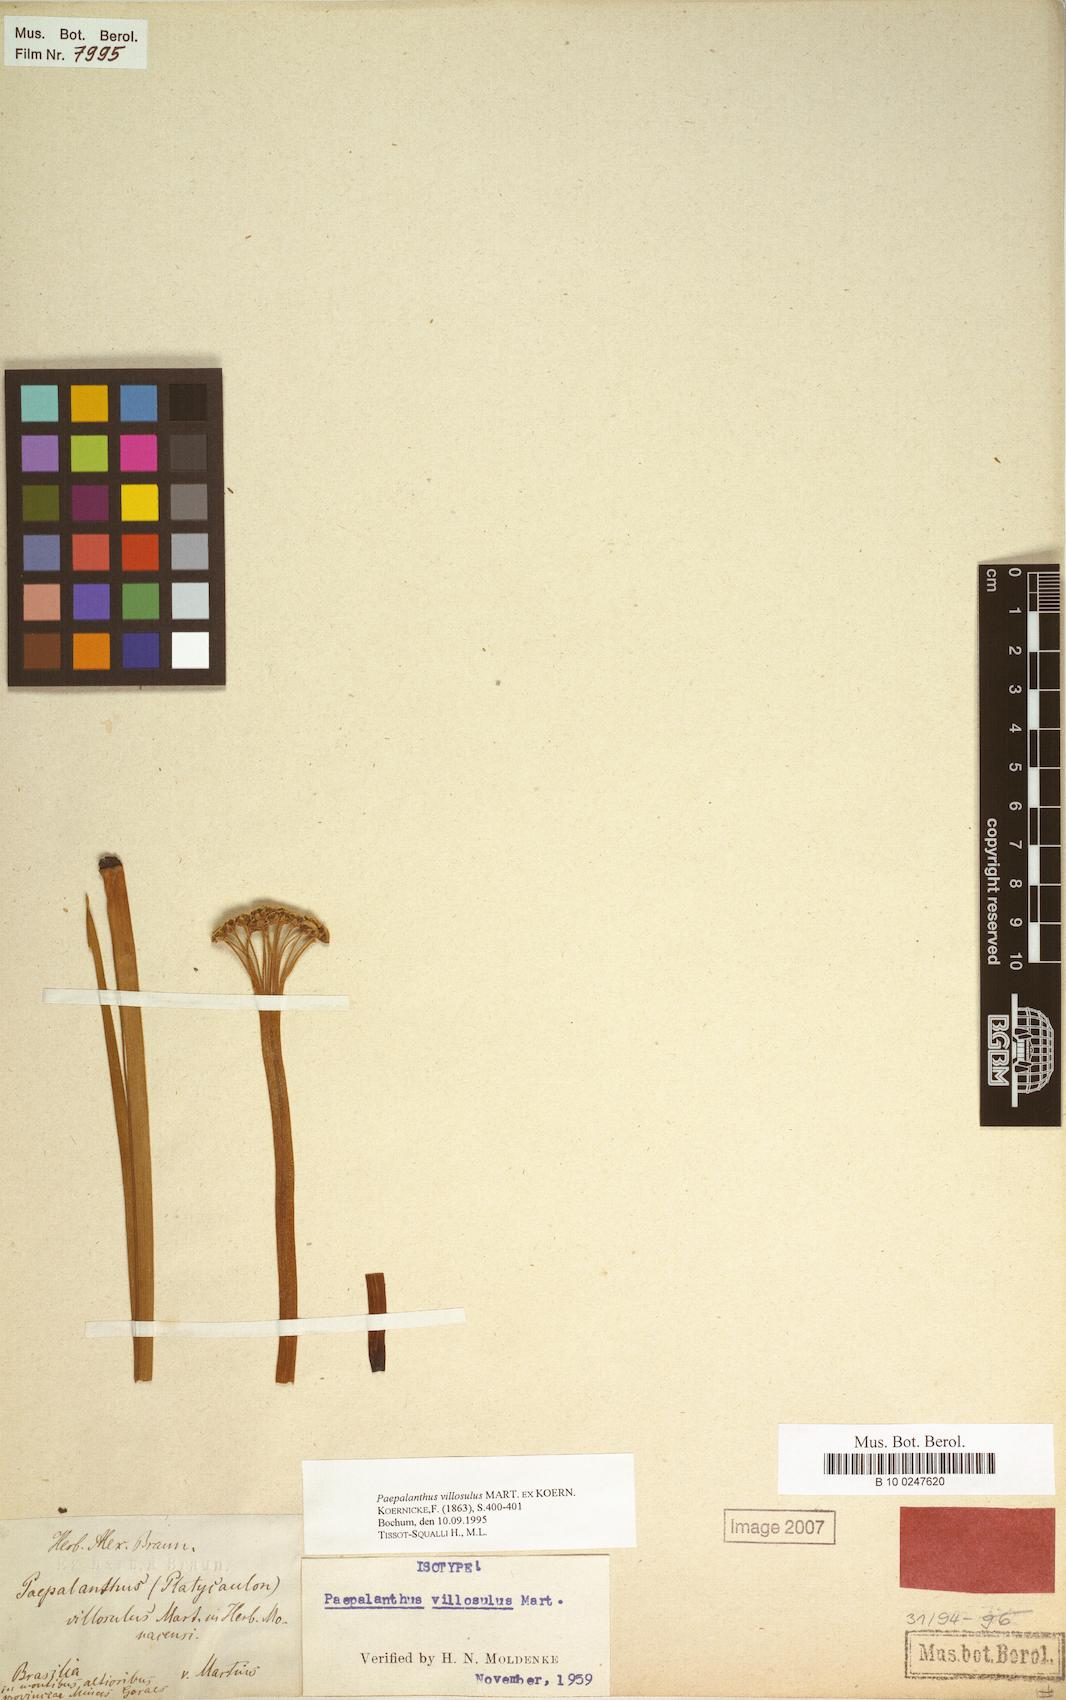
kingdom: Plantae
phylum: Tracheophyta
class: Liliopsida
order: Poales
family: Eriocaulaceae
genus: Paepalanthus
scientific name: Paepalanthus villosulus
